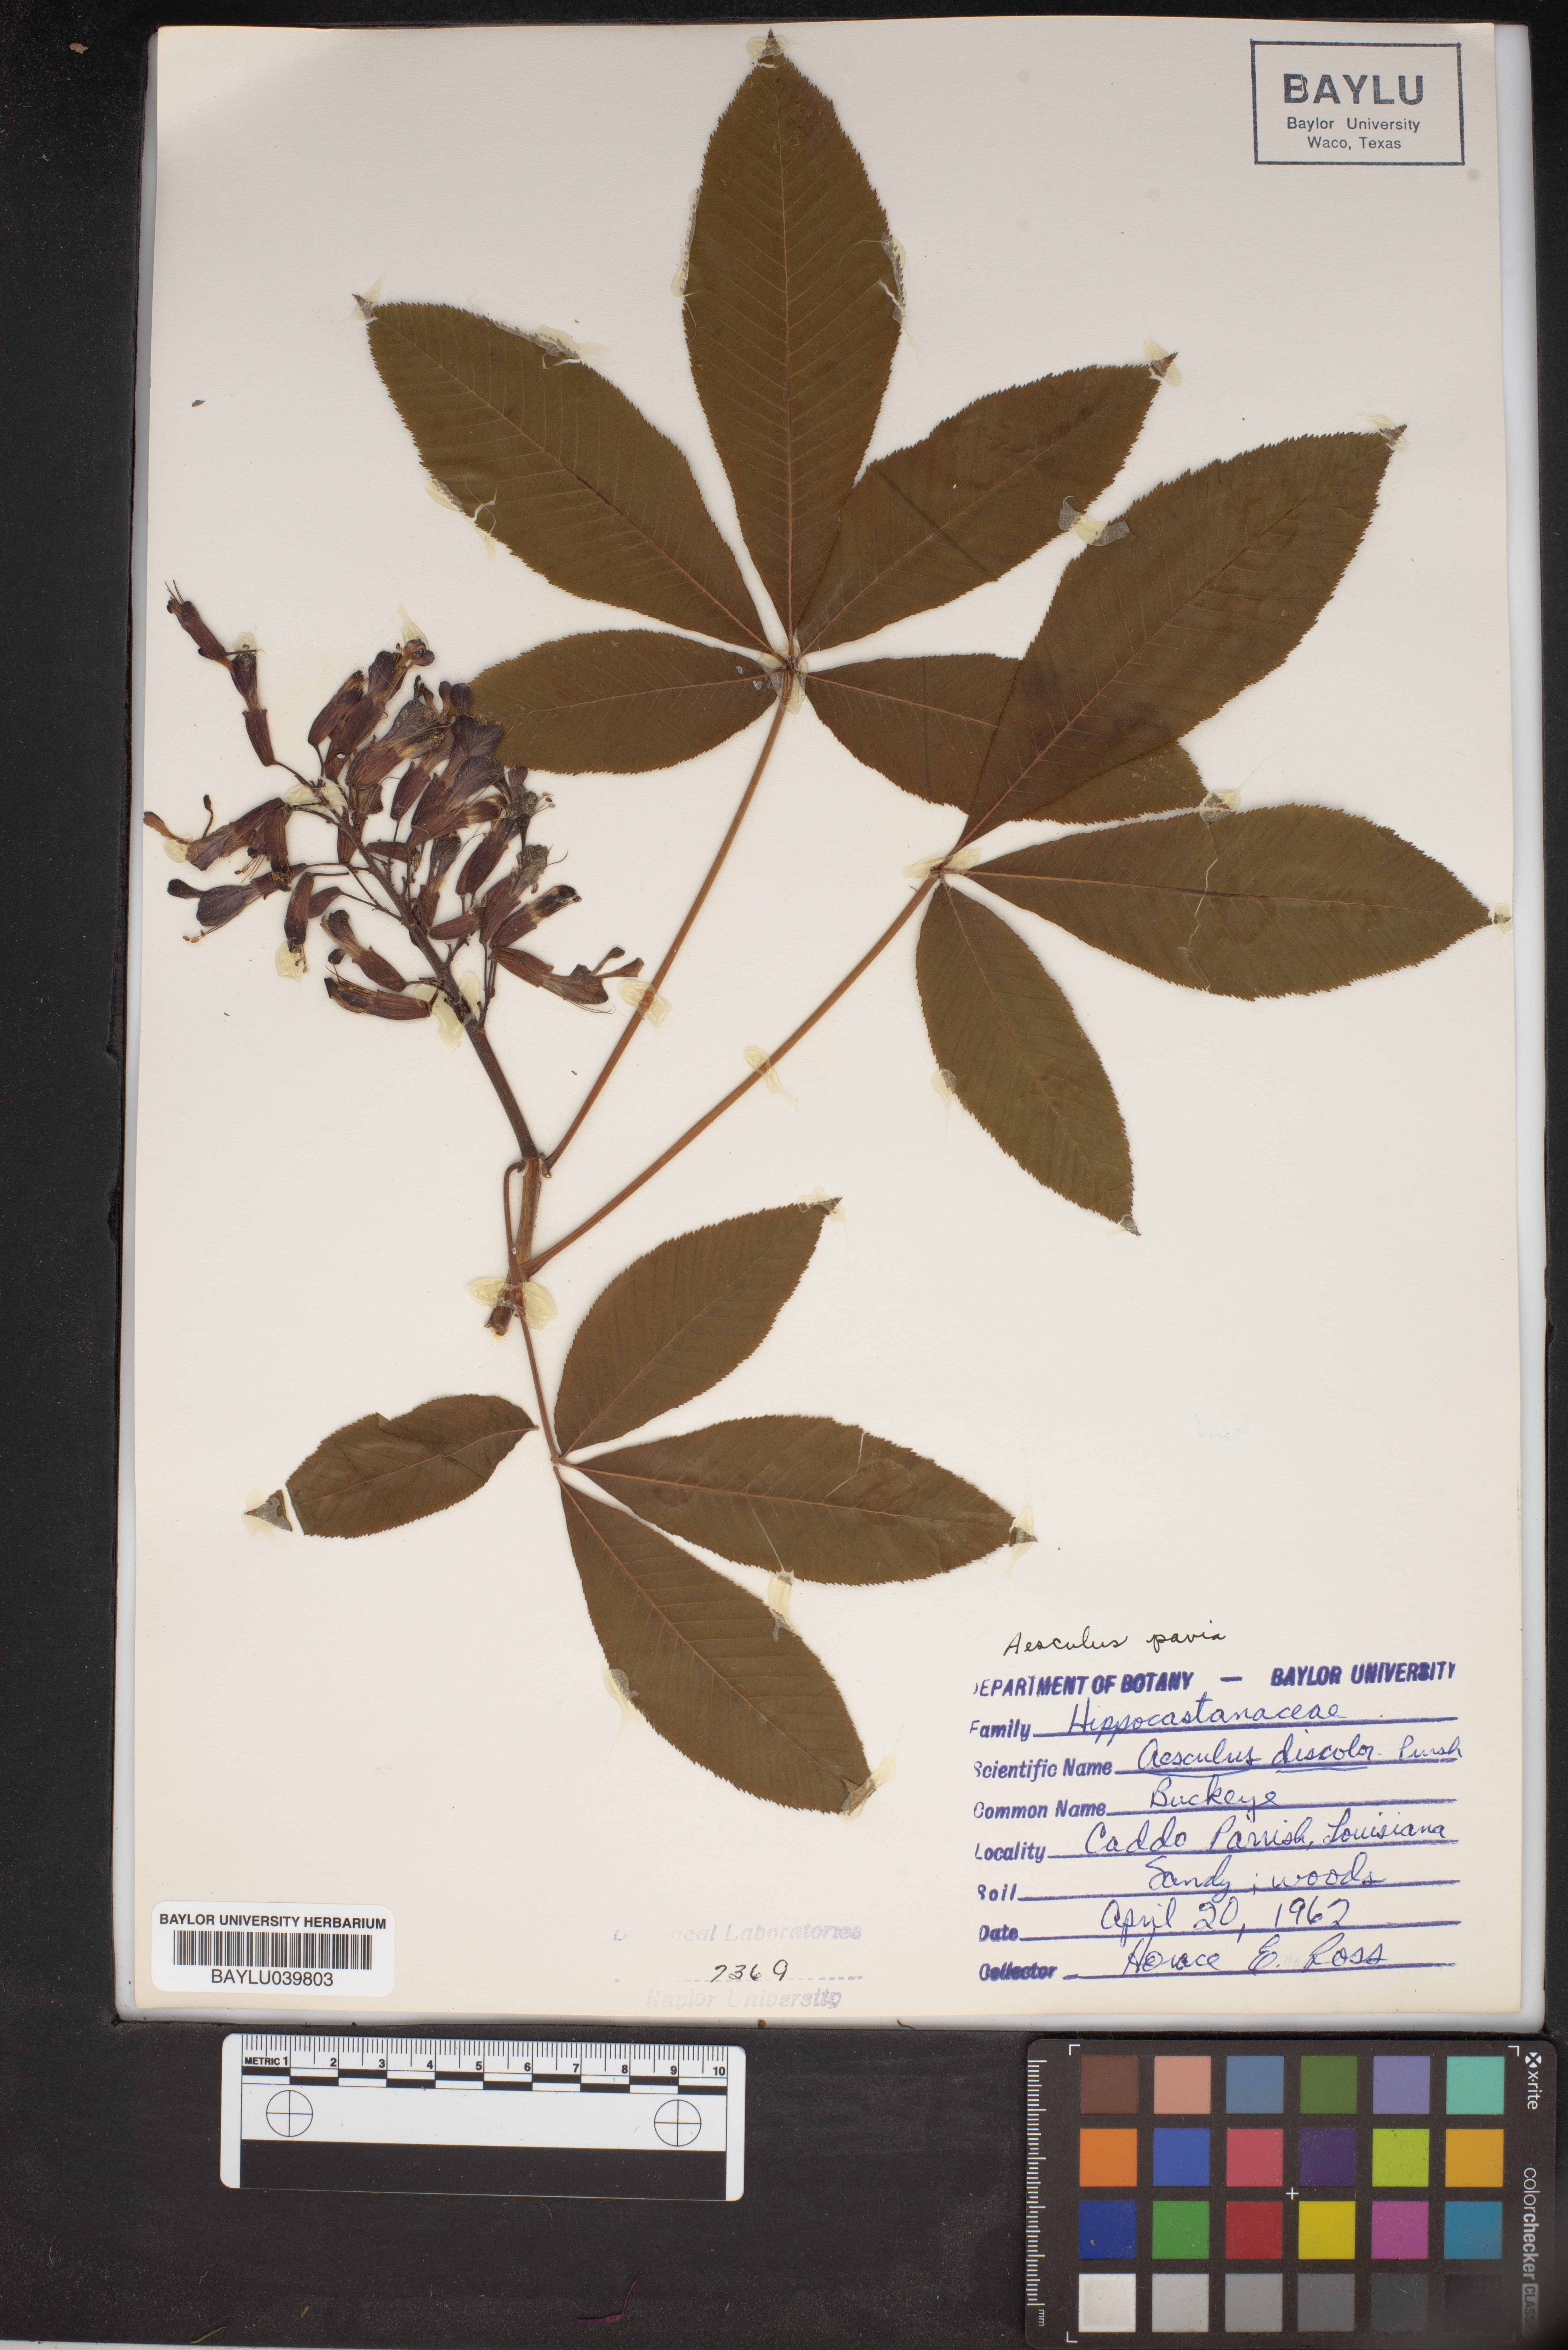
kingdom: Plantae
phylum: Tracheophyta
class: Magnoliopsida
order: Sapindales
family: Sapindaceae
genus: Aesculus
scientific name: Aesculus pavia
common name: Red buckeye
